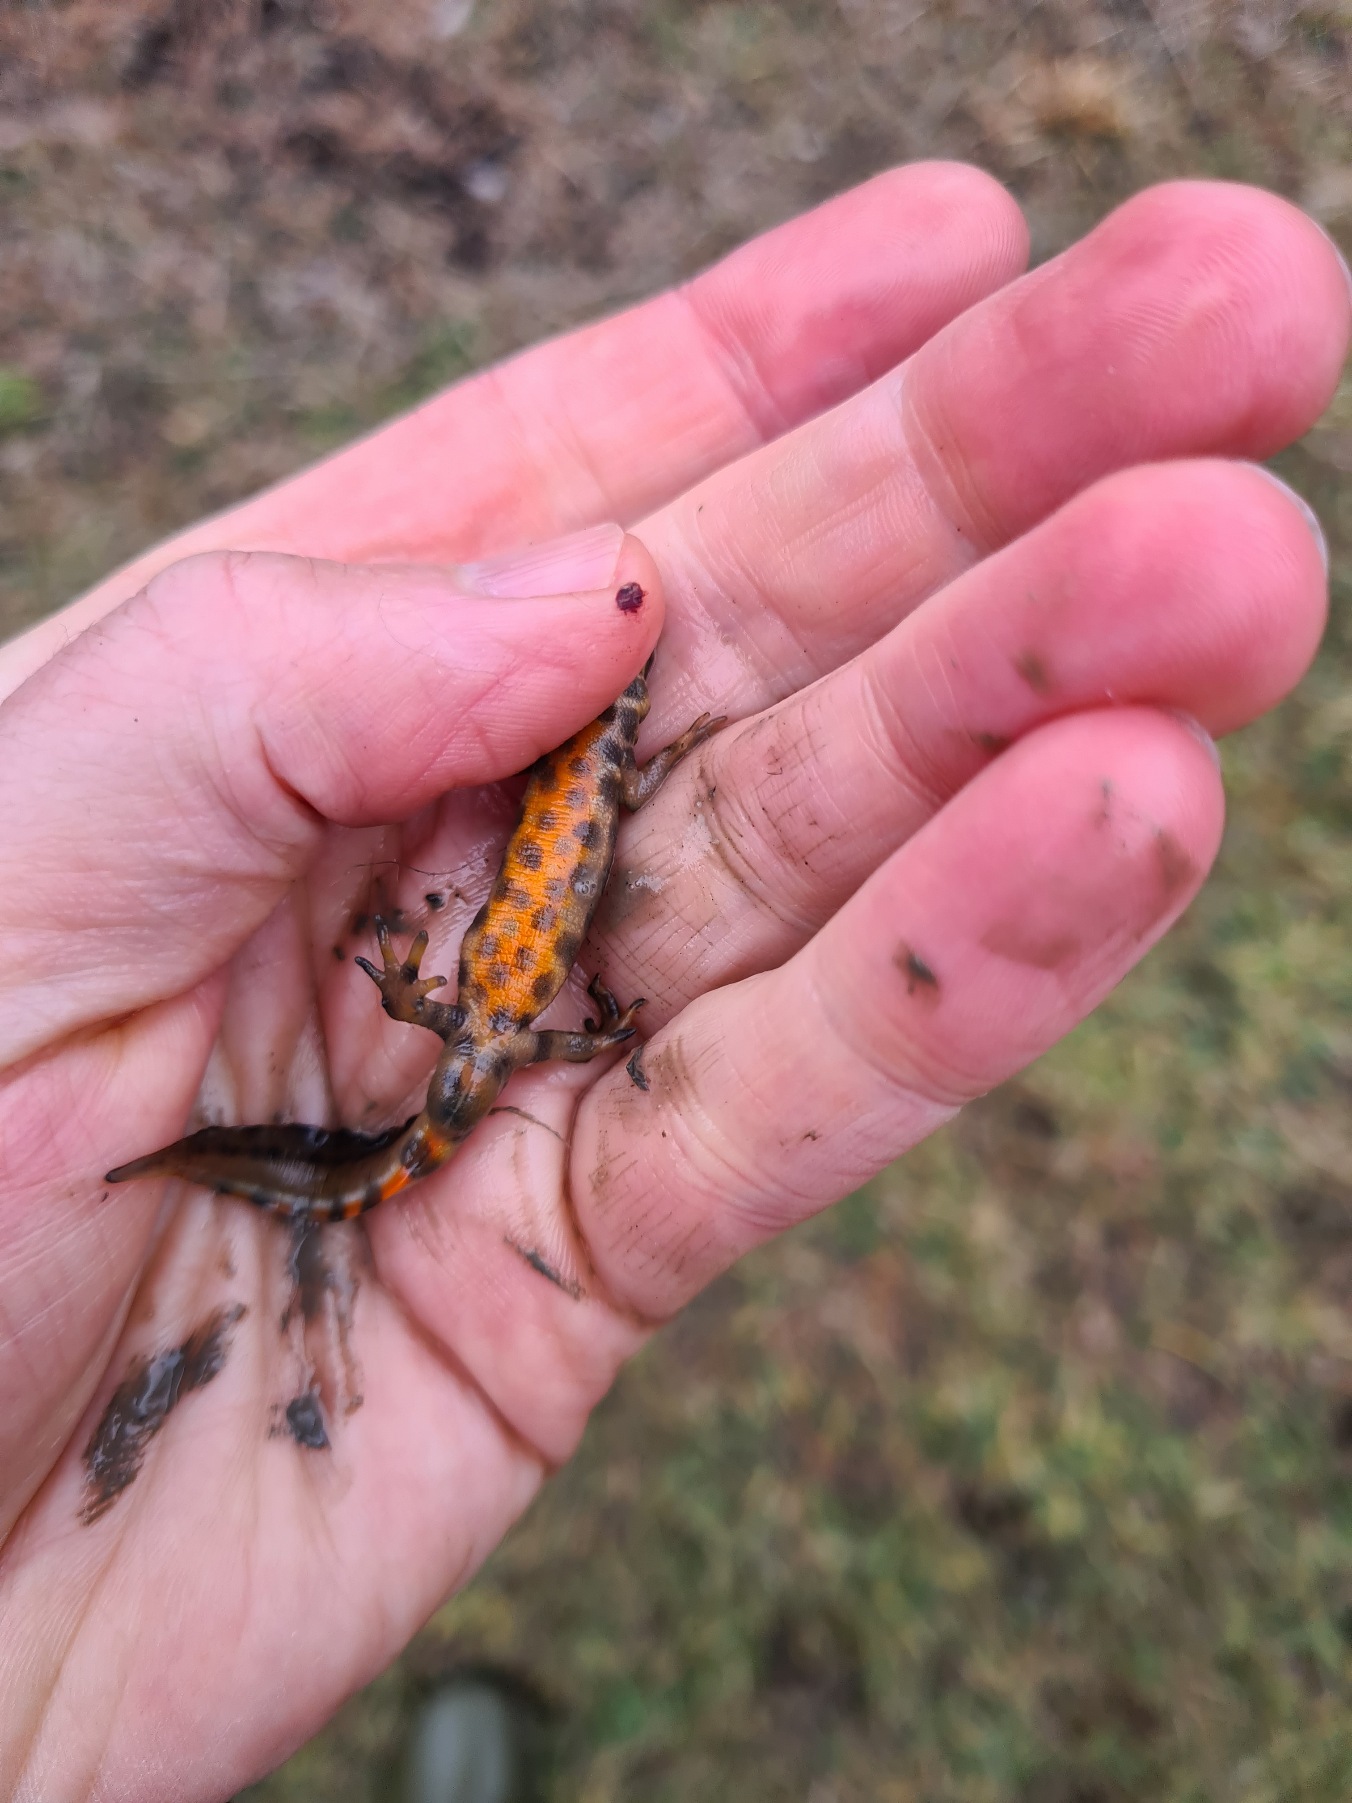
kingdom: Animalia
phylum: Chordata
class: Amphibia
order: Caudata
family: Salamandridae
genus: Lissotriton
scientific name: Lissotriton vulgaris
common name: Lille vandsalamander
